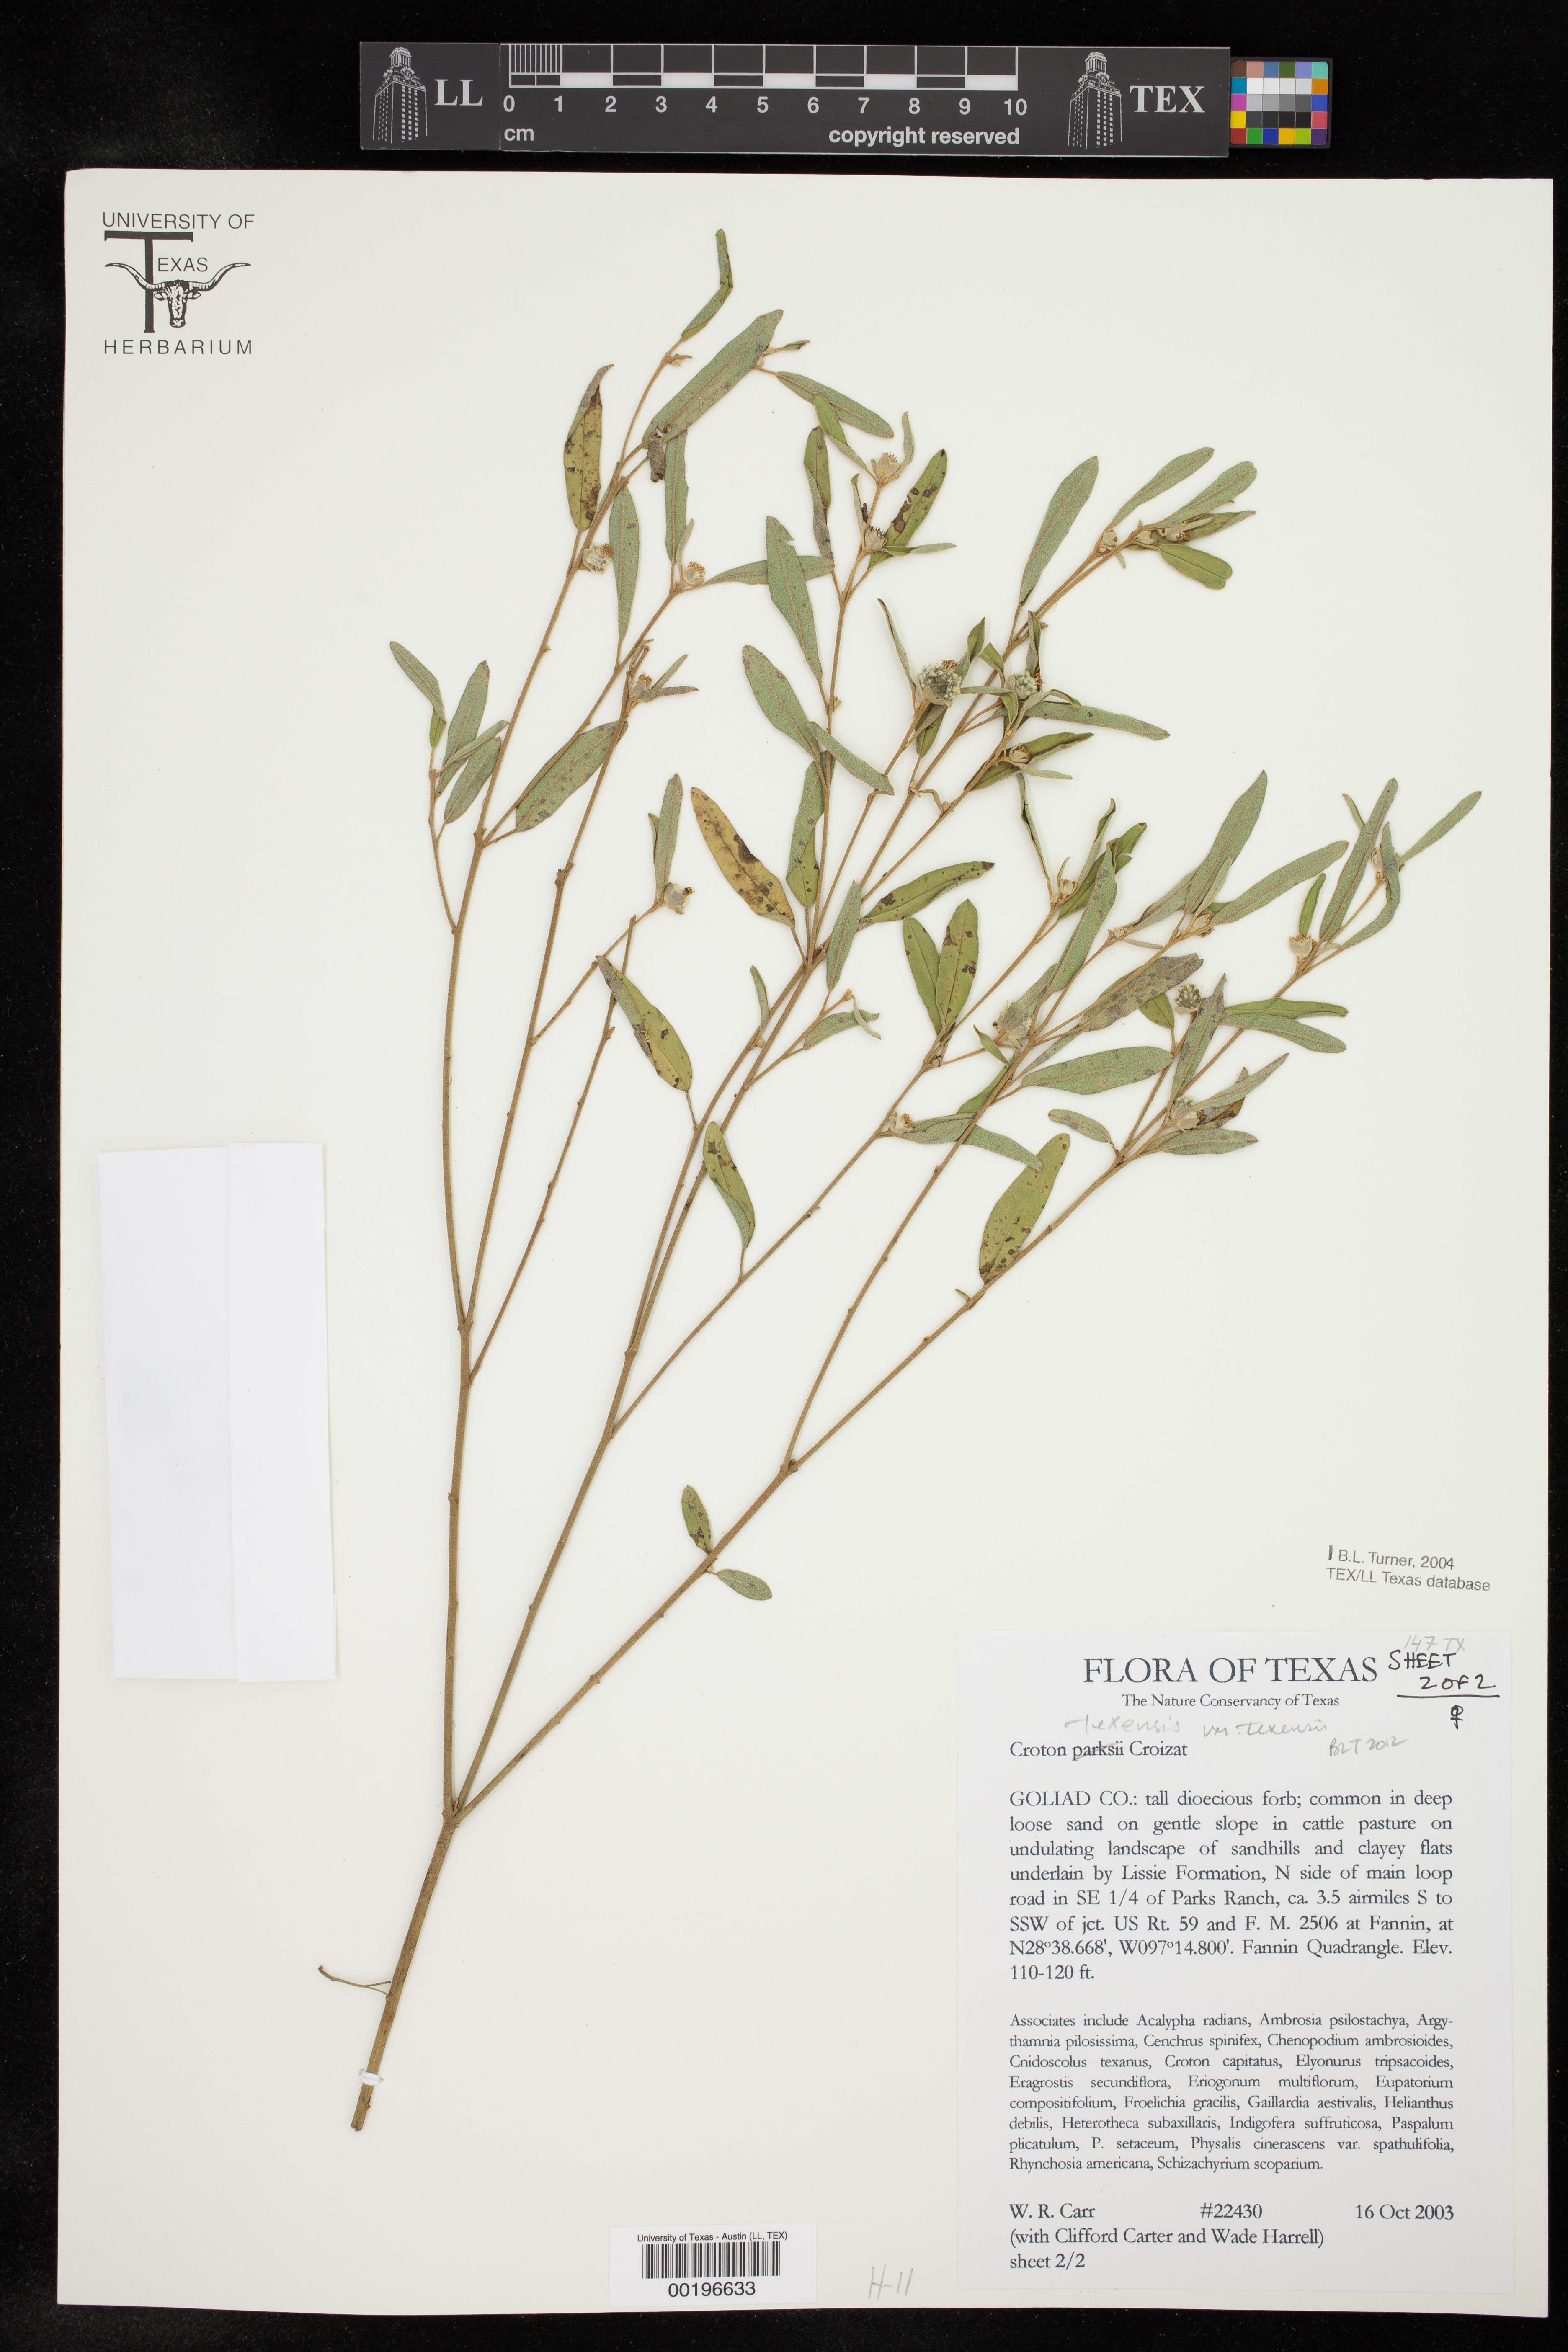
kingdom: Plantae
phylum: Tracheophyta
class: Magnoliopsida
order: Malpighiales
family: Euphorbiaceae
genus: Croton
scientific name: Croton texensis
